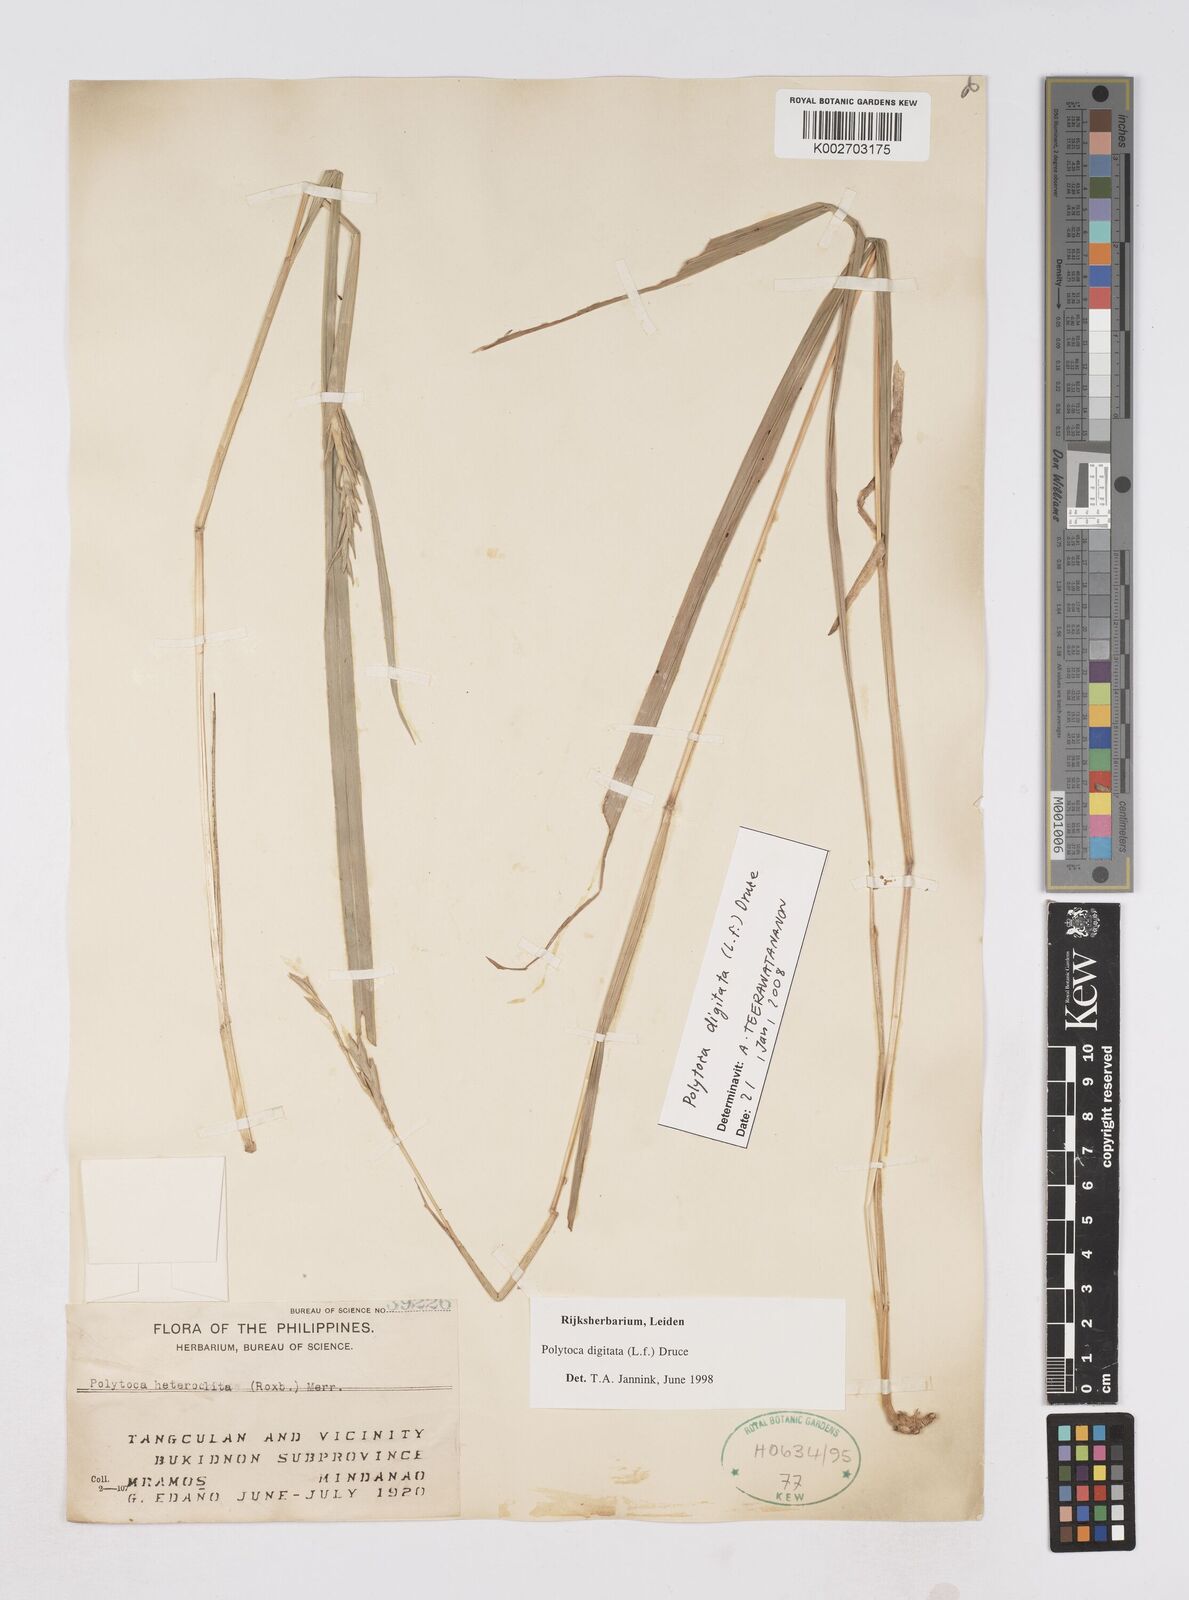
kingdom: Plantae
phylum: Tracheophyta
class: Liliopsida
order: Poales
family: Poaceae
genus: Polytoca
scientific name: Polytoca digitata
